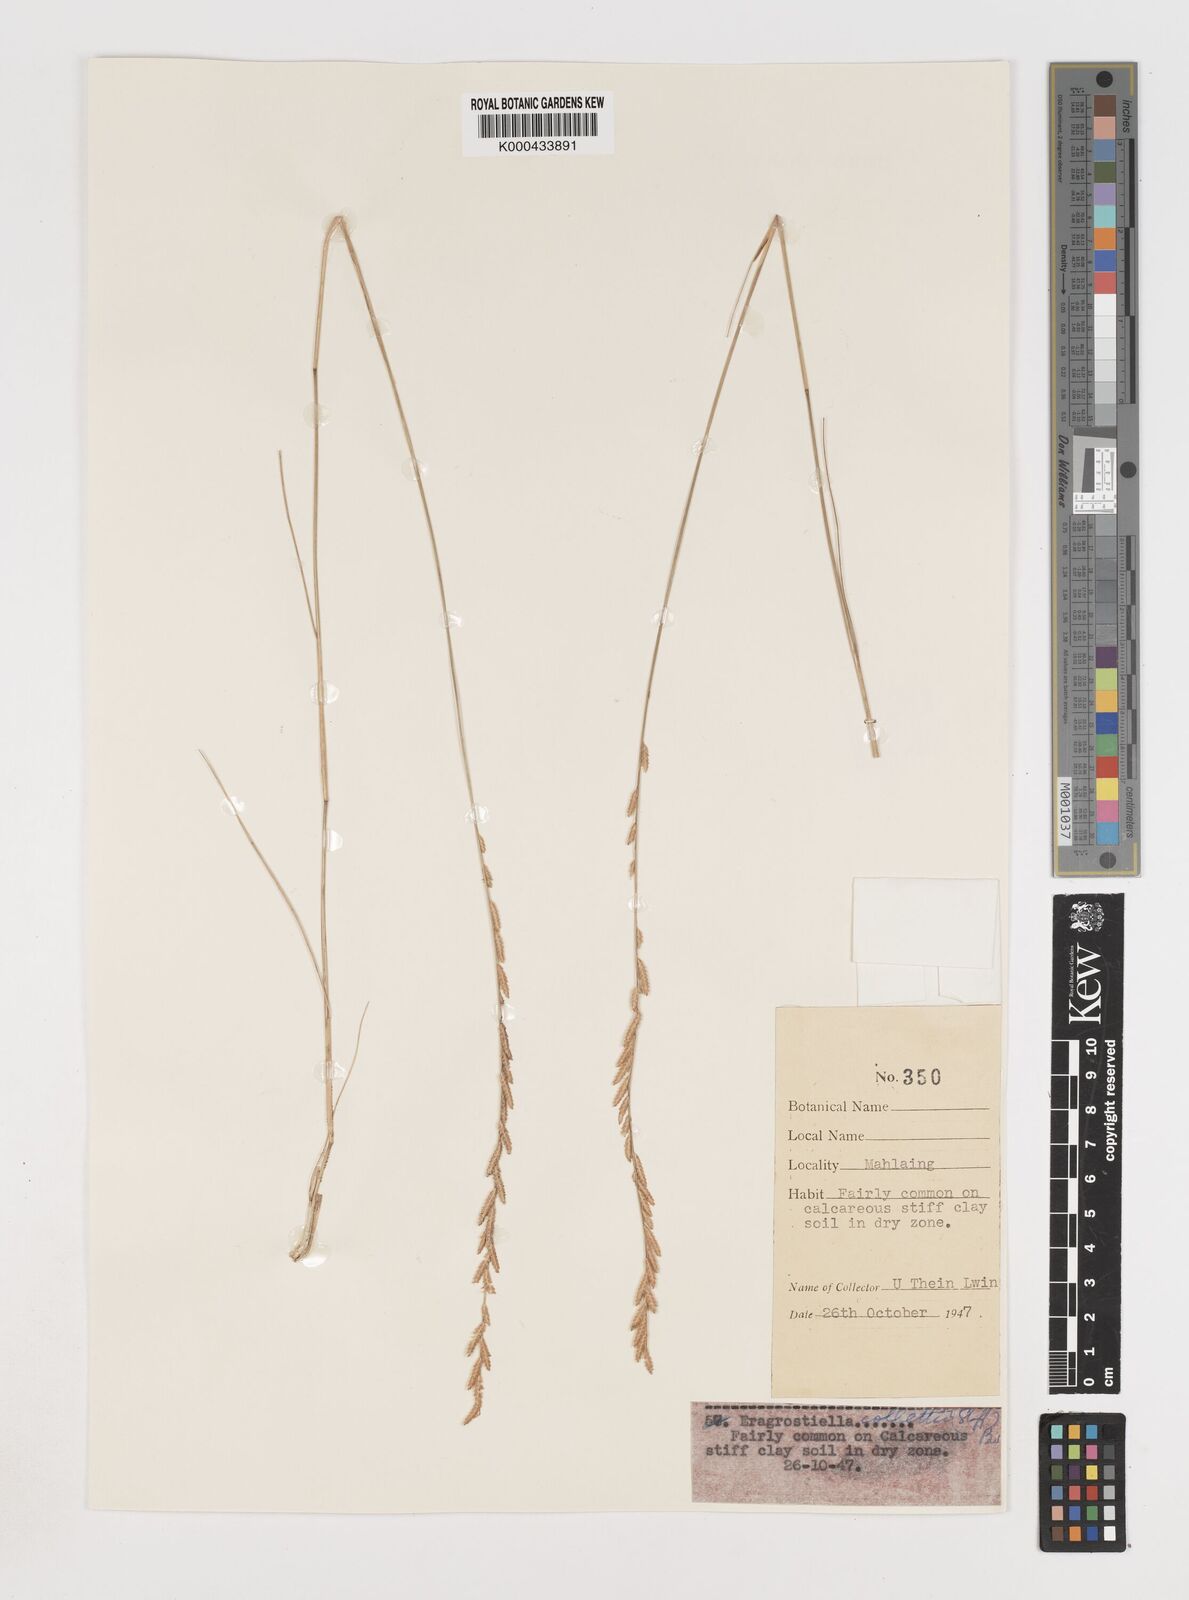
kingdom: Plantae
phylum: Tracheophyta
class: Liliopsida
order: Poales
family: Poaceae
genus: Eragrostiella
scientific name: Eragrostiella collettii
